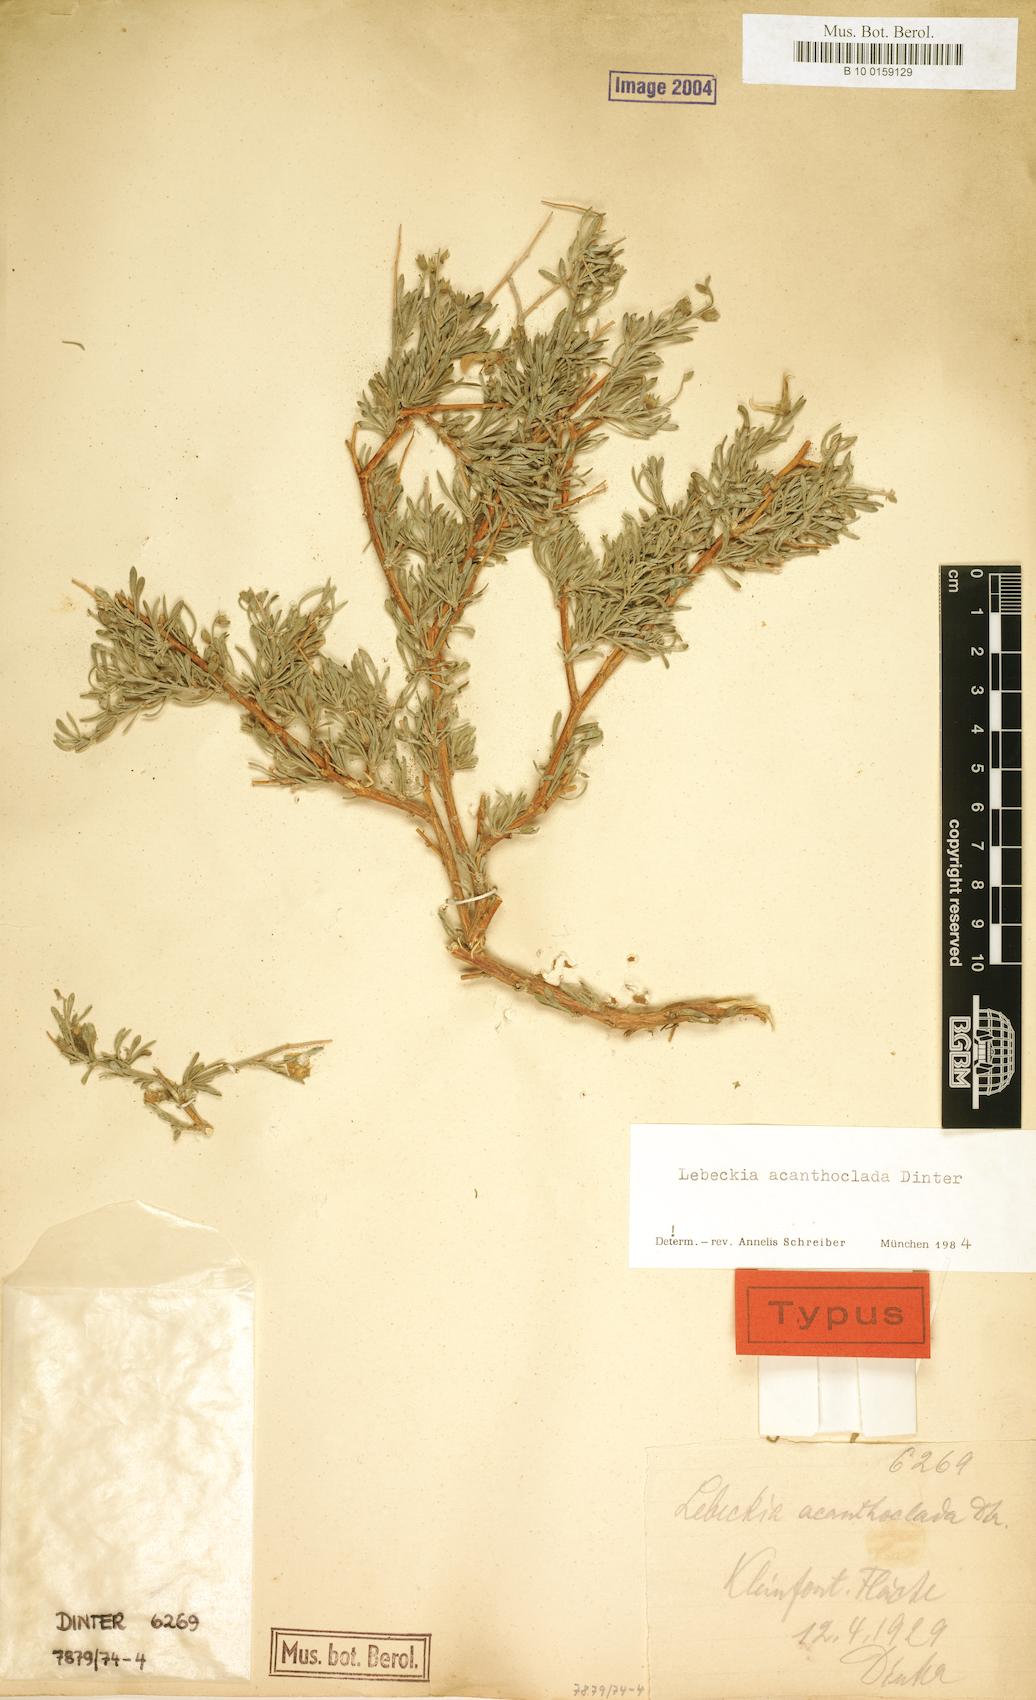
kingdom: Plantae
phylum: Tracheophyta
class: Magnoliopsida
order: Fabales
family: Fabaceae
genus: Calobota
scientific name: Calobota acanthoclada
